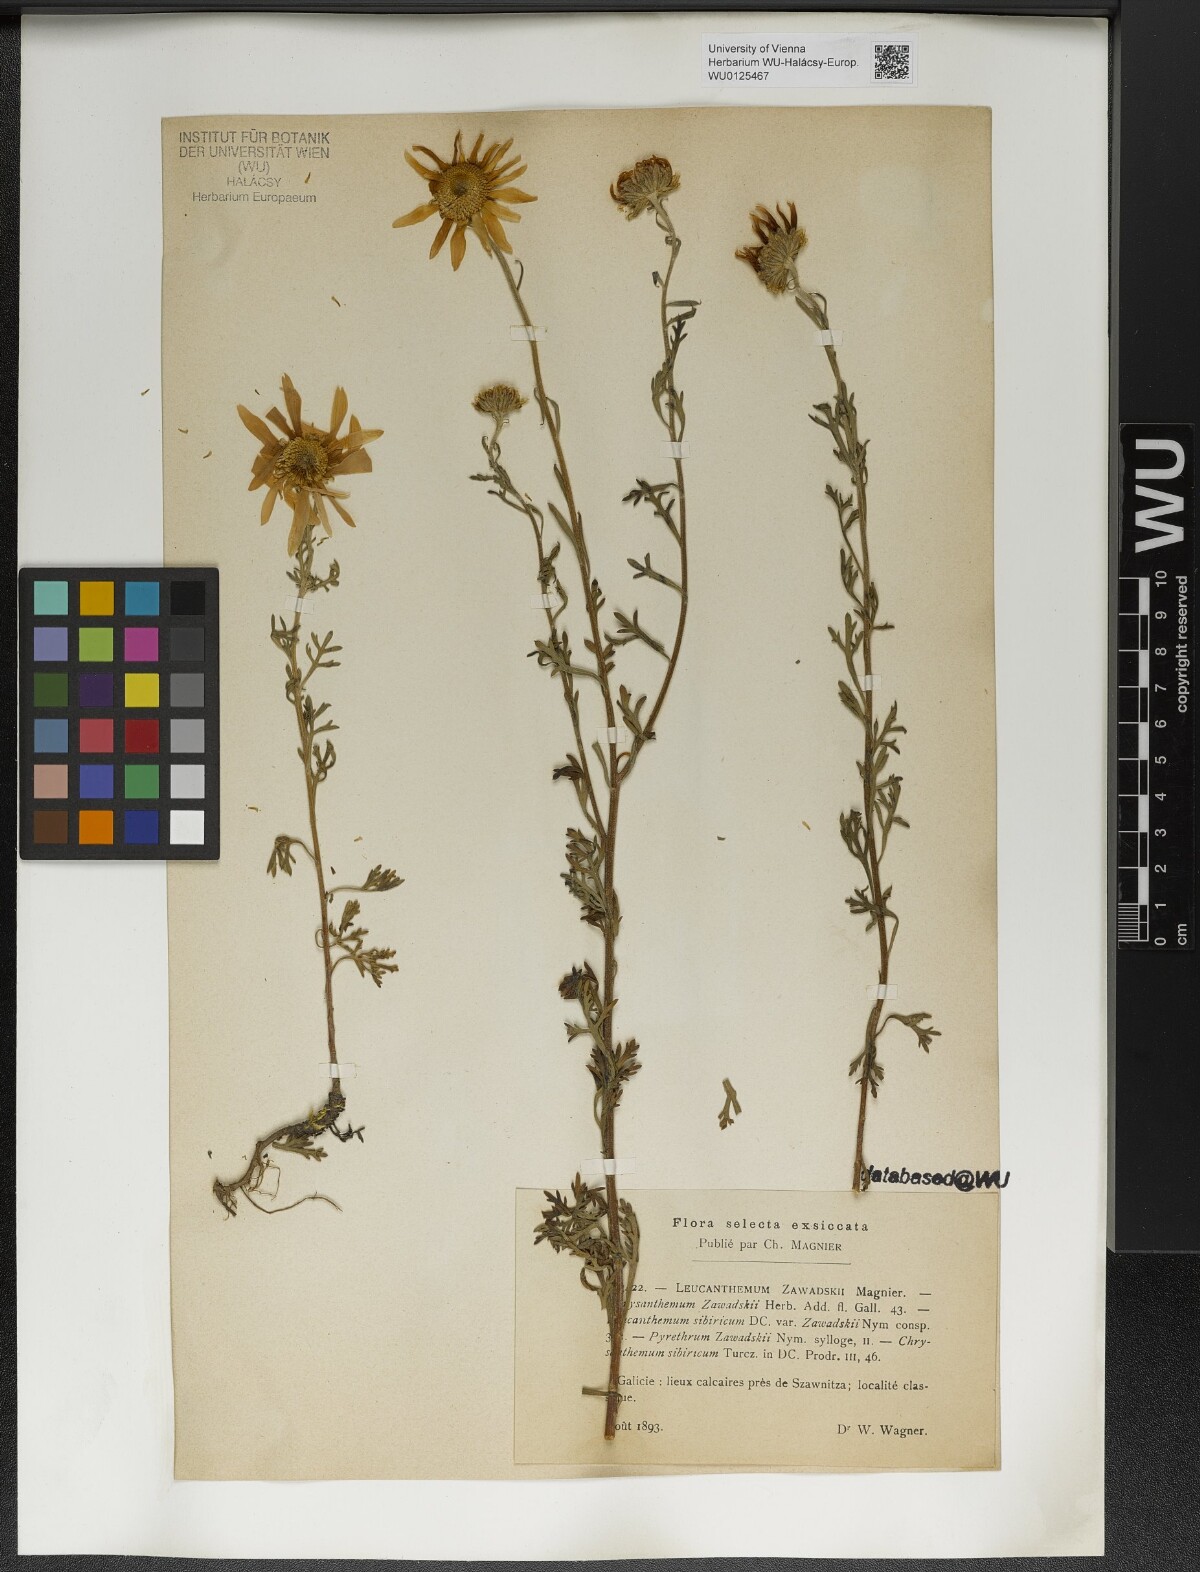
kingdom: Plantae
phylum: Tracheophyta
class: Magnoliopsida
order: Asterales
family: Asteraceae
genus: Chrysanthemum
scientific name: Chrysanthemum zawadzkii
